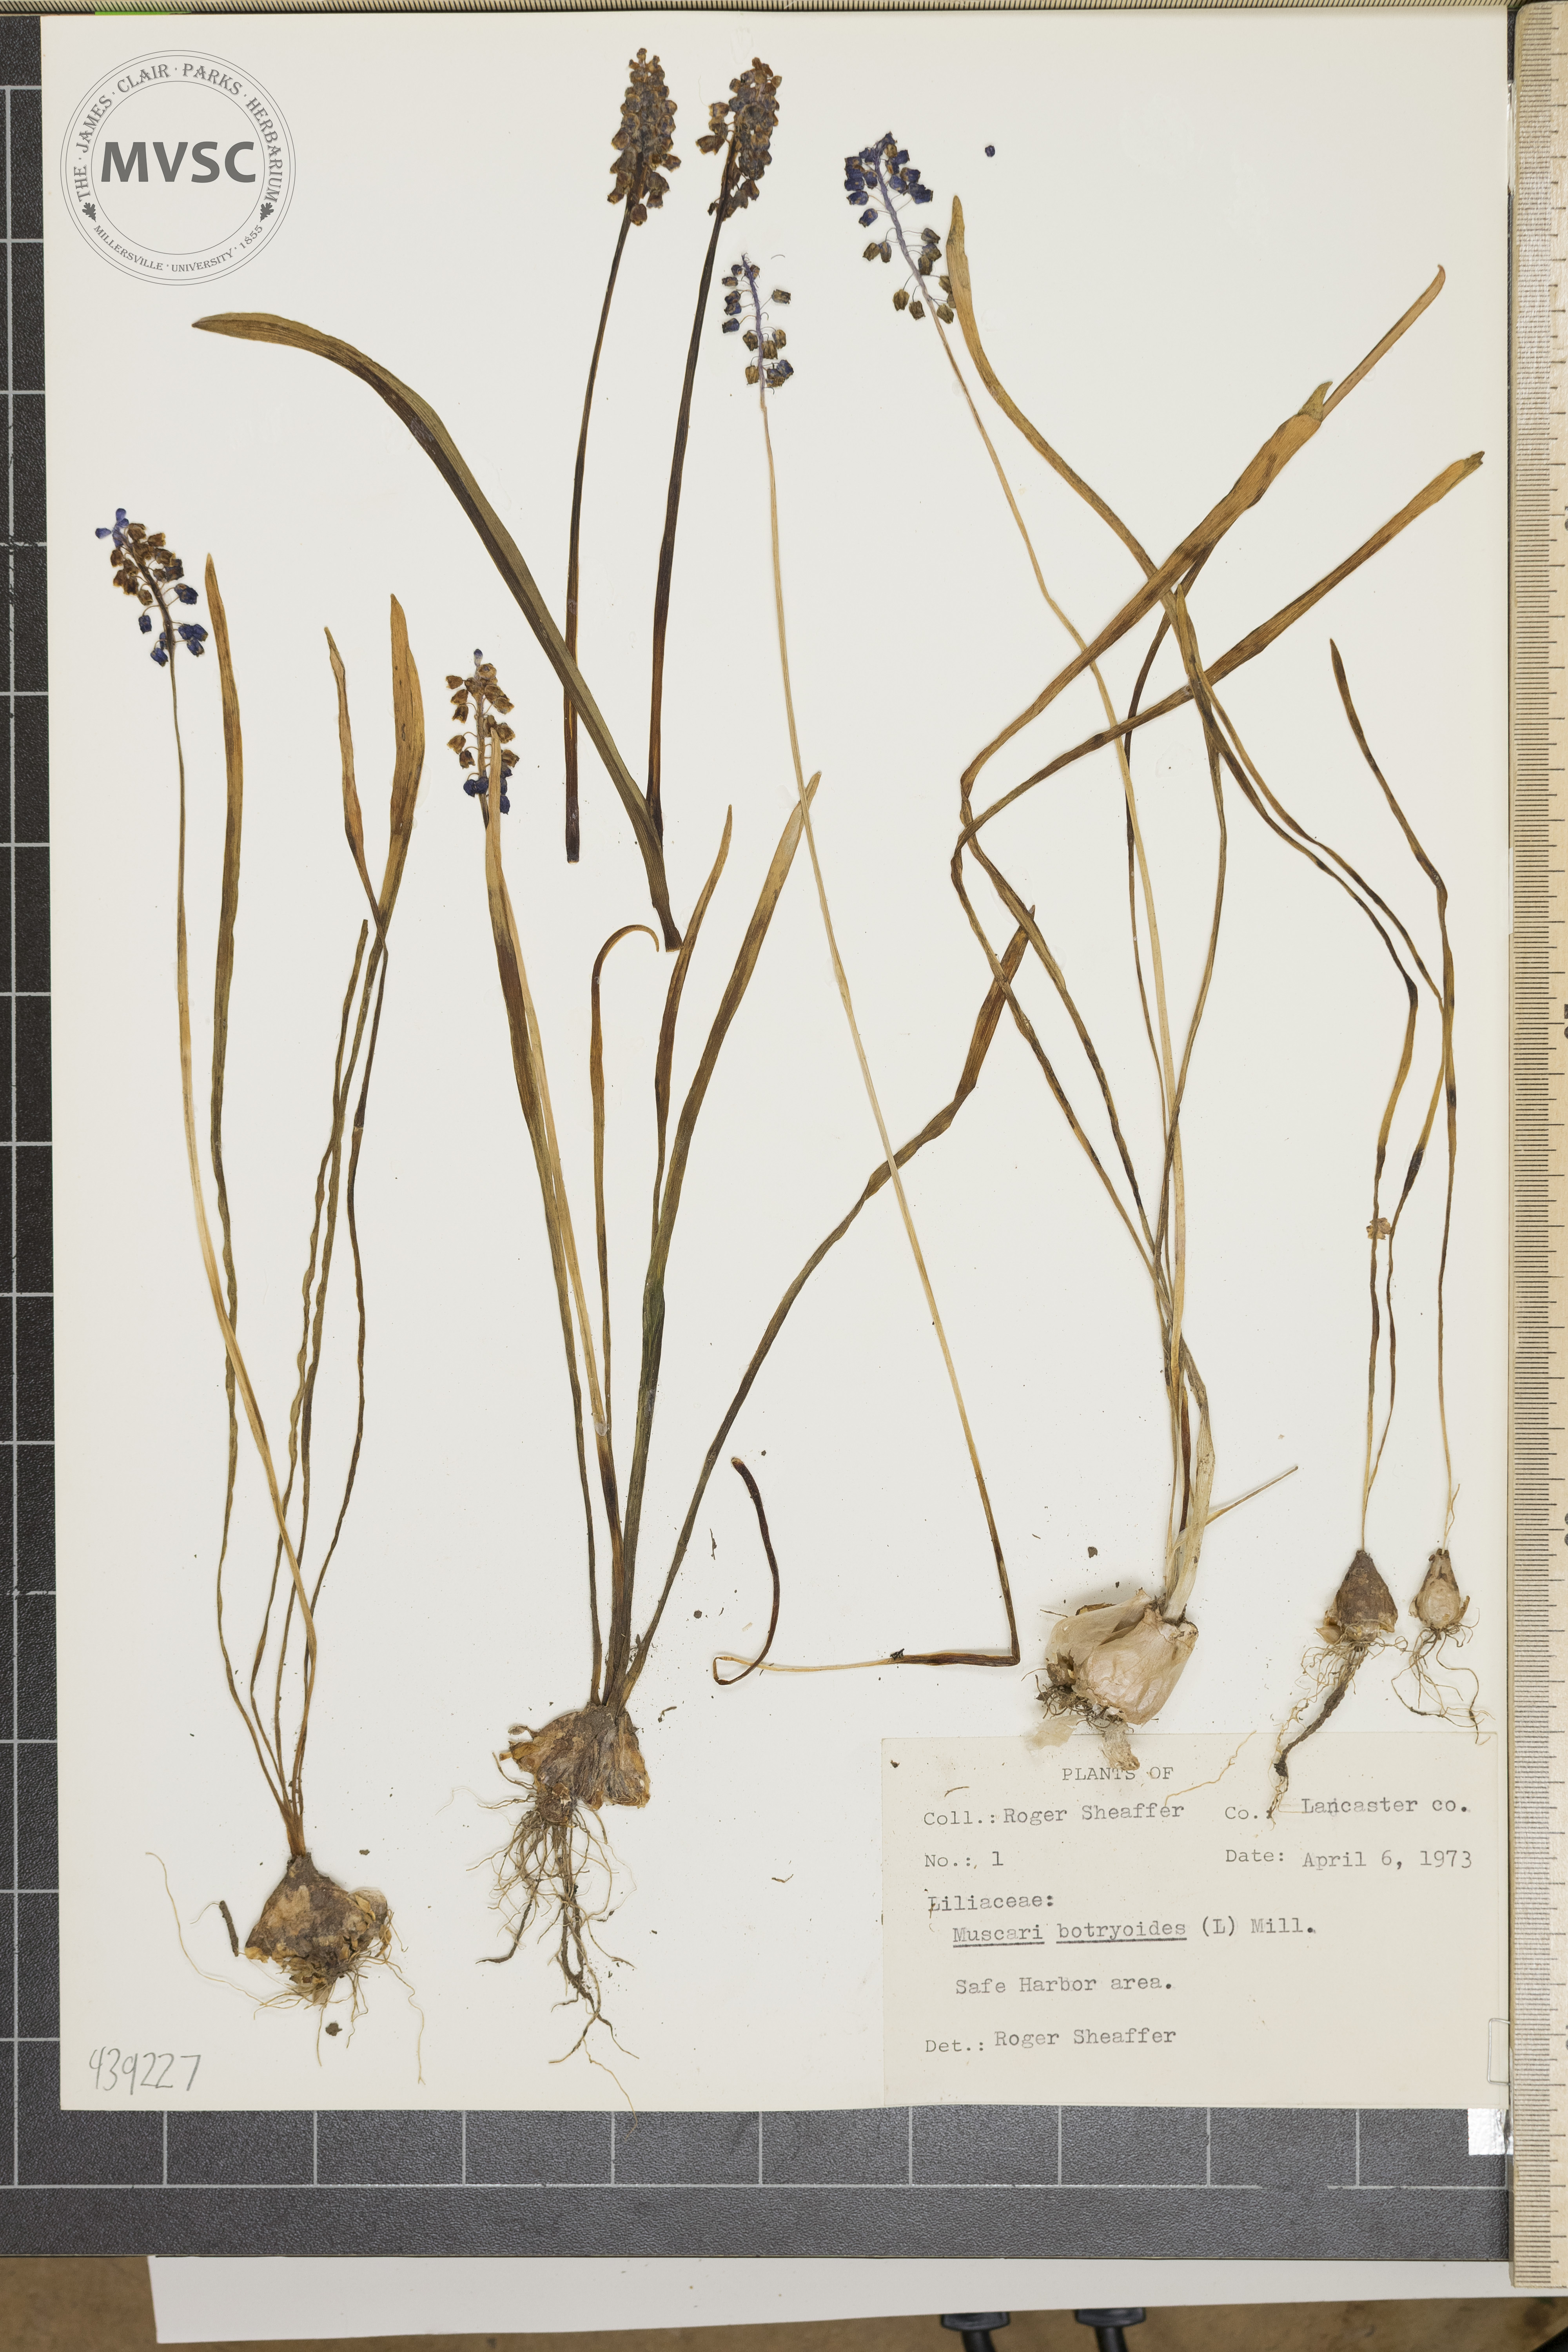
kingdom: Plantae
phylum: Tracheophyta
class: Liliopsida
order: Asparagales
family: Asparagaceae
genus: Muscari
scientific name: Muscari botryoides
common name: Compact grape-hyacinth
